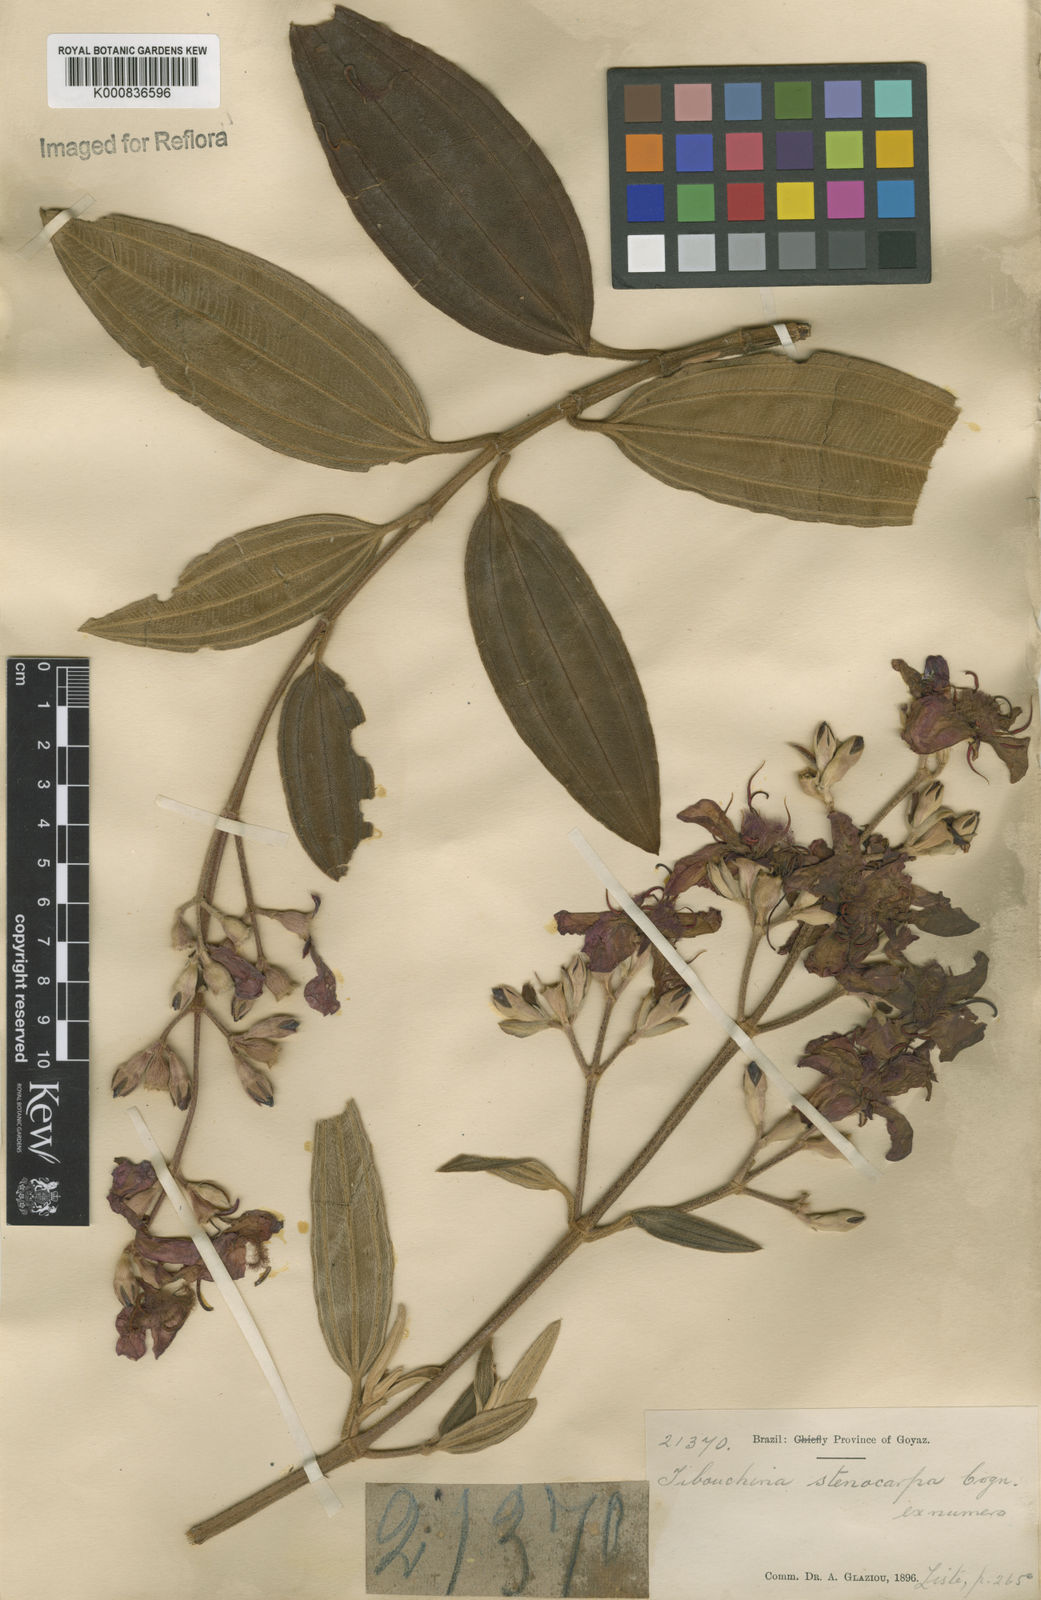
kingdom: Plantae
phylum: Tracheophyta
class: Magnoliopsida
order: Myrtales
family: Melastomataceae
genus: Pleroma
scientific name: Pleroma stenocarpum
